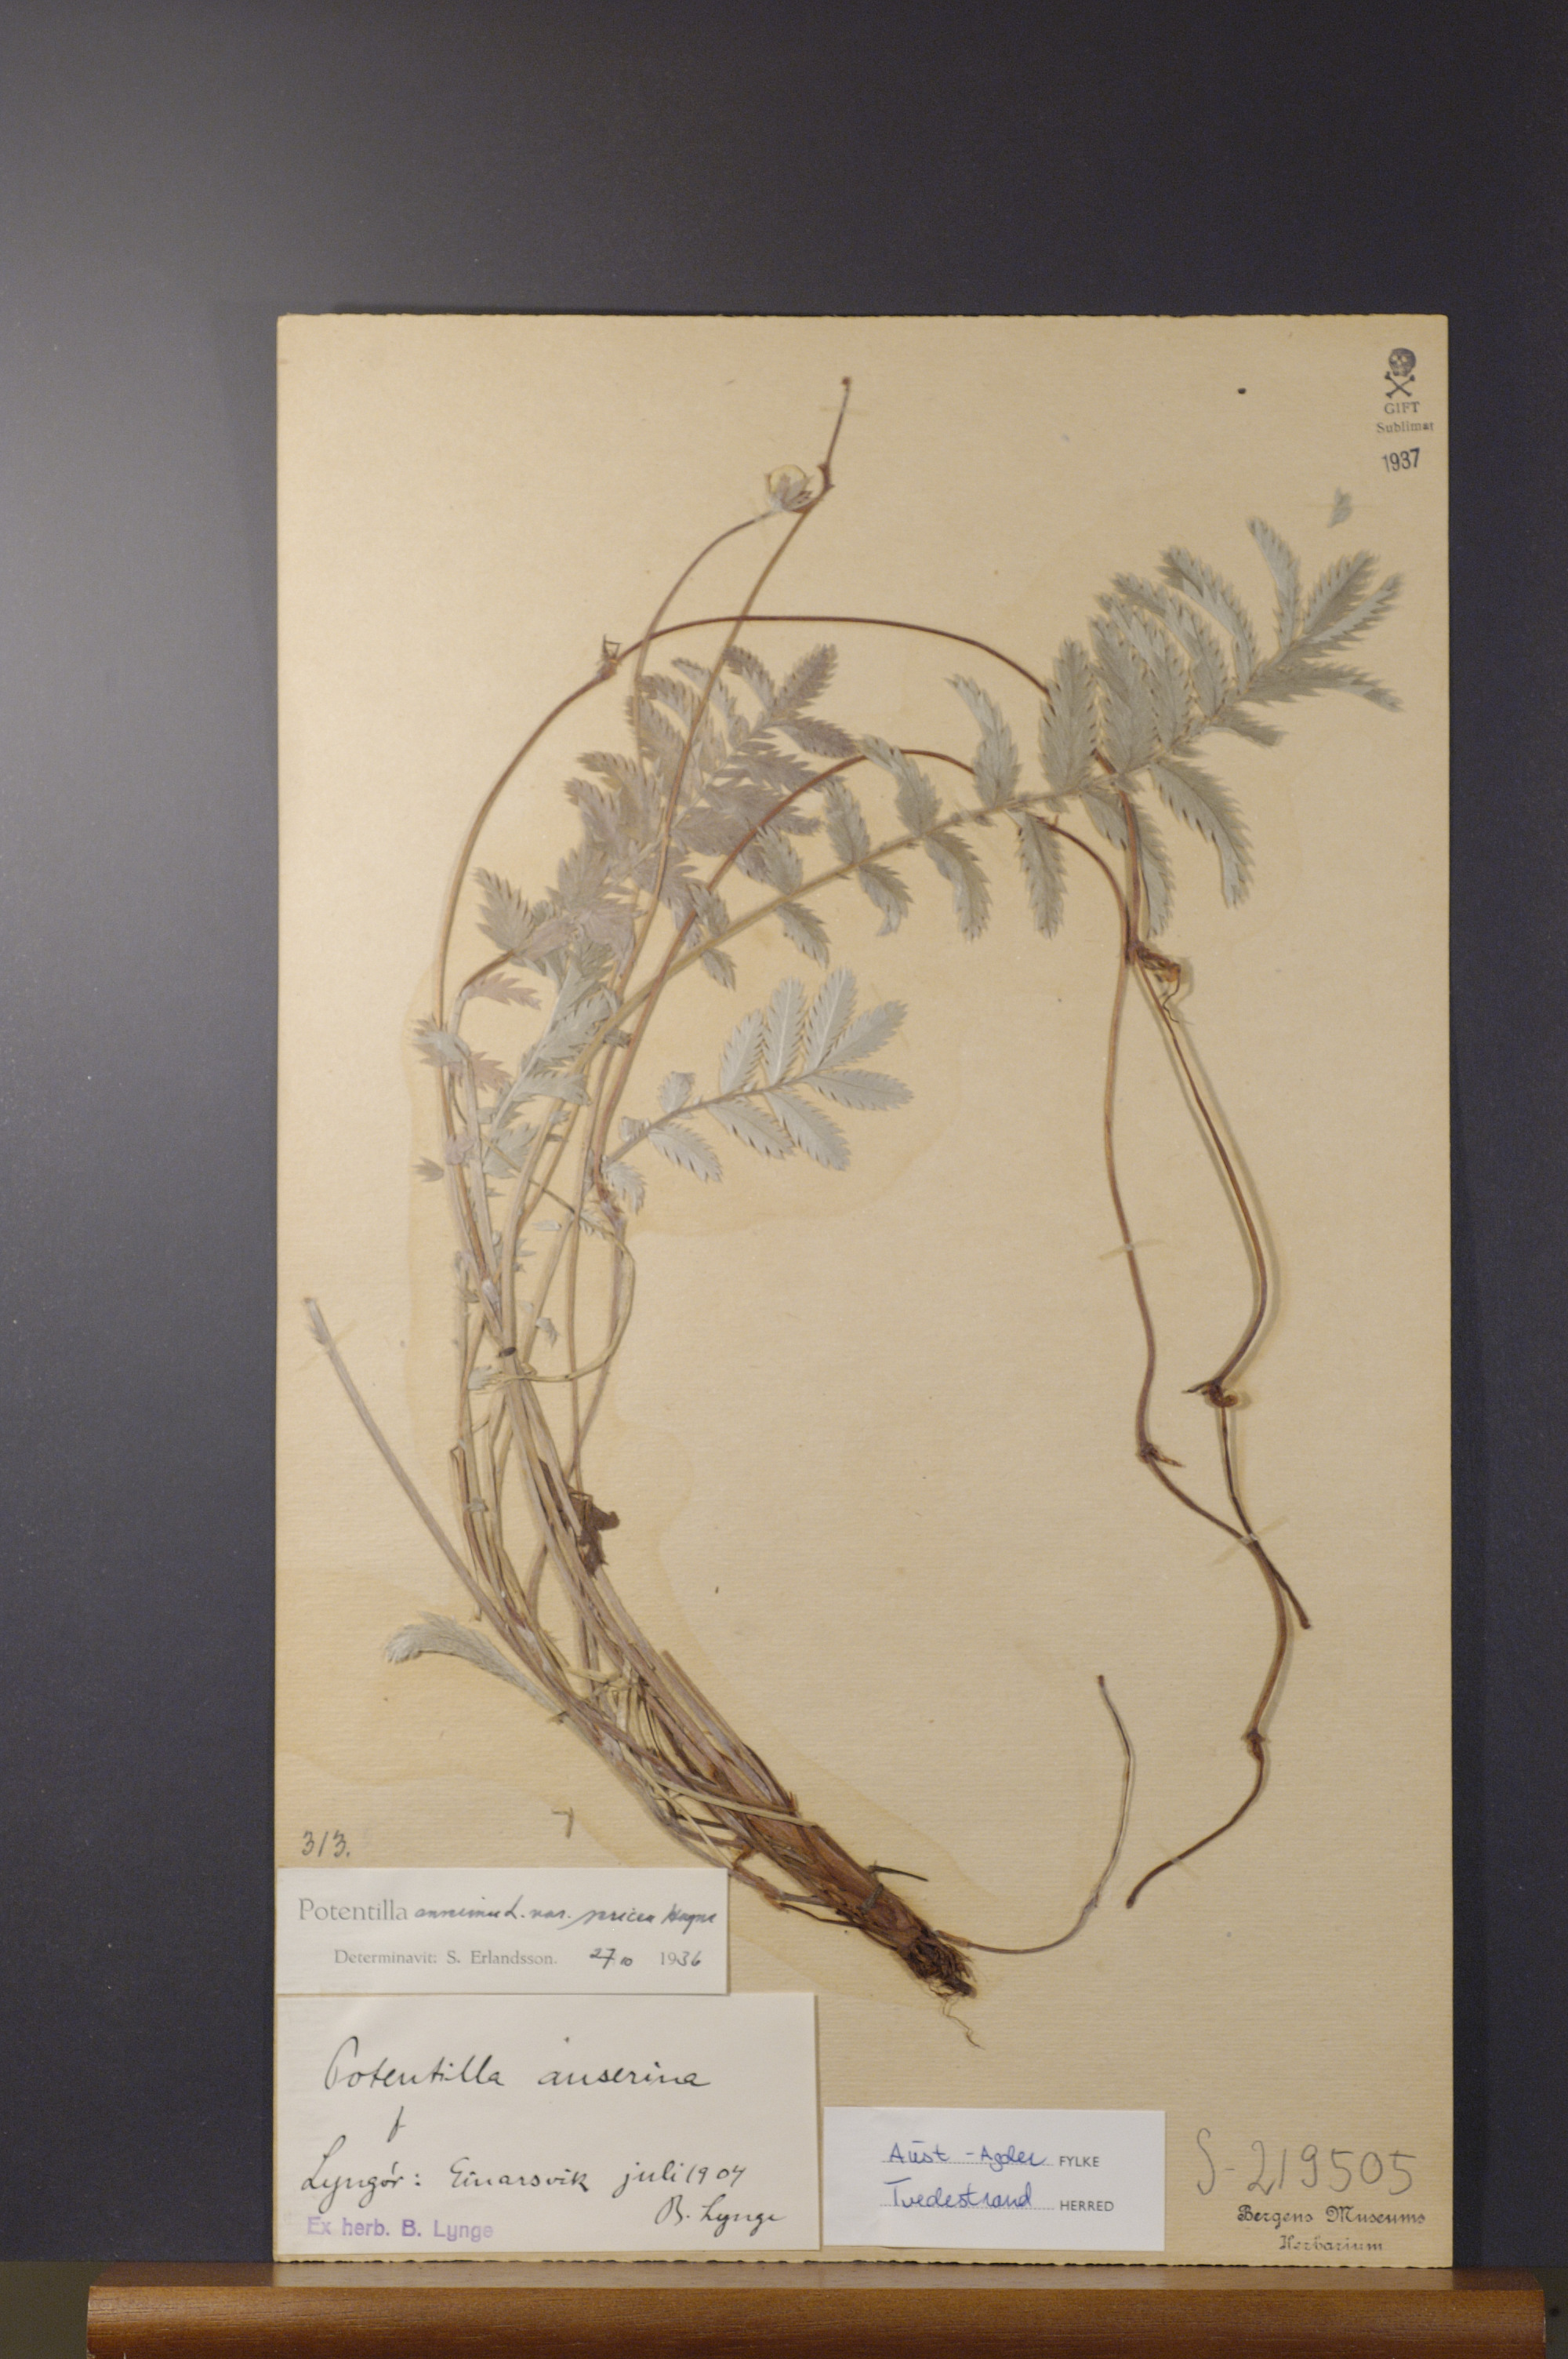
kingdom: Plantae
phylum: Tracheophyta
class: Magnoliopsida
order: Rosales
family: Rosaceae
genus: Argentina
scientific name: Argentina anserina
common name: Common silverweed
